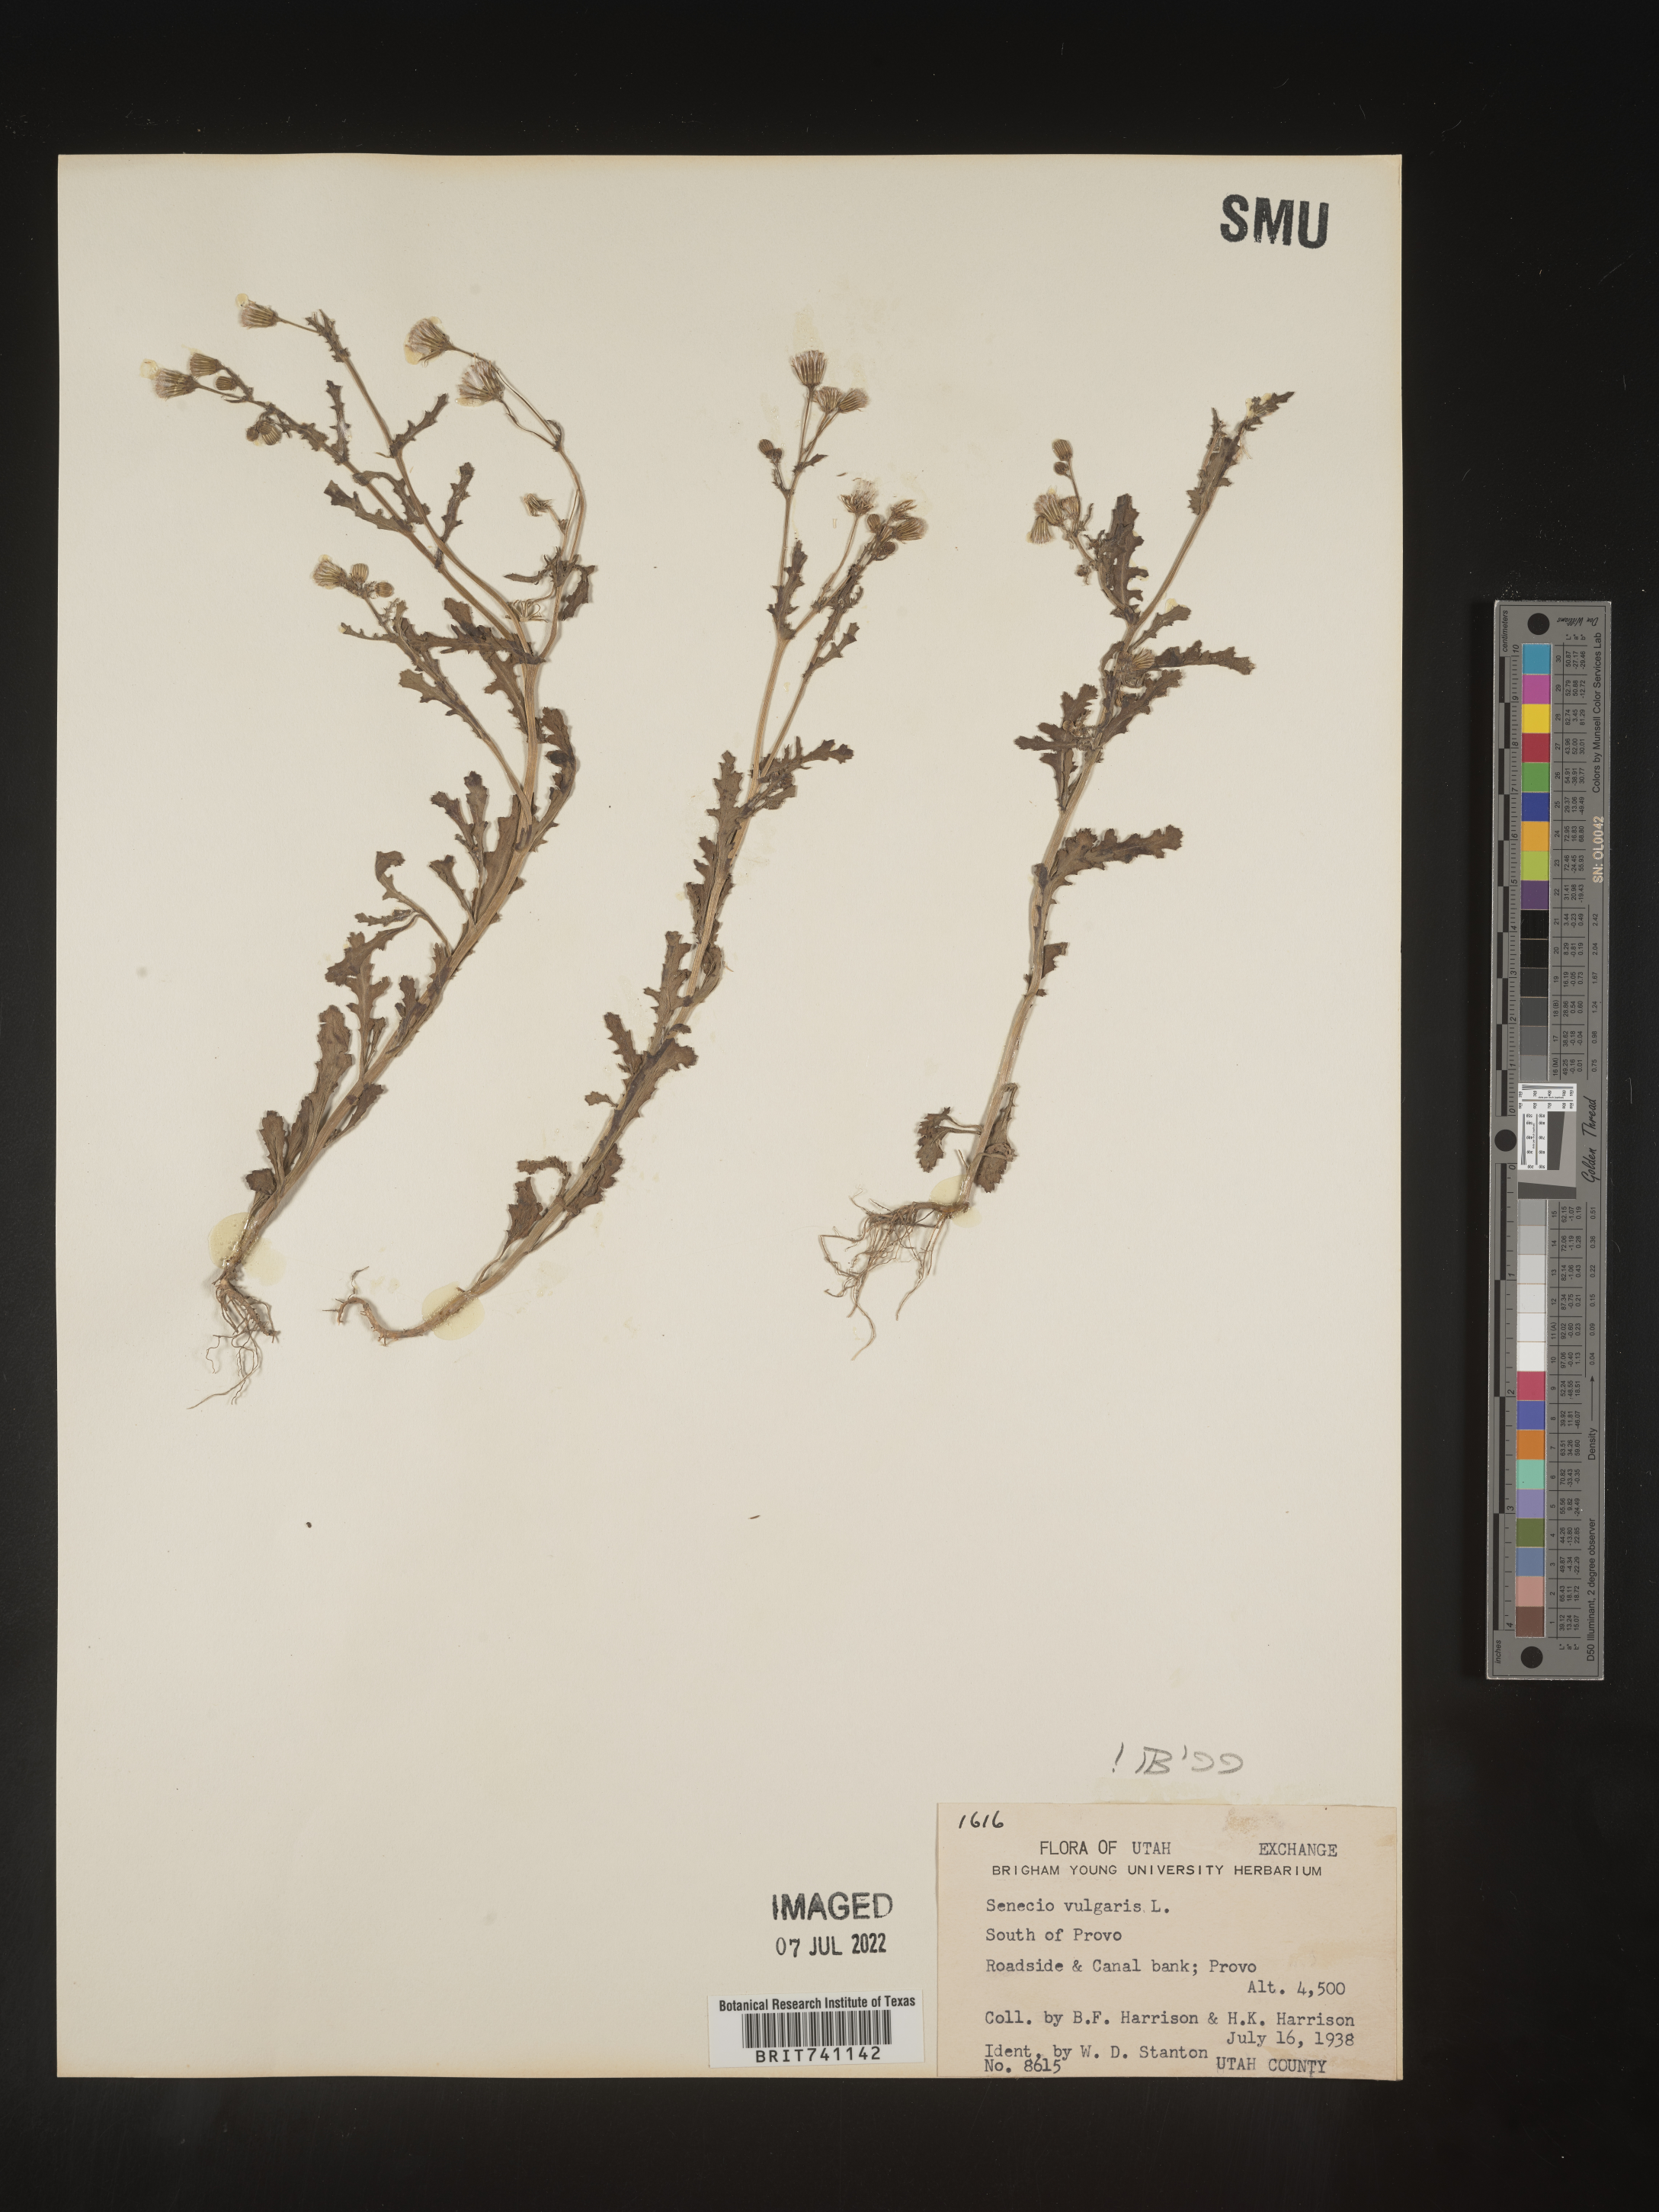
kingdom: Plantae
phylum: Tracheophyta
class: Magnoliopsida
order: Asterales
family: Asteraceae
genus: Senecio
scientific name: Senecio vulgaris
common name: Old-man-in-the-spring
